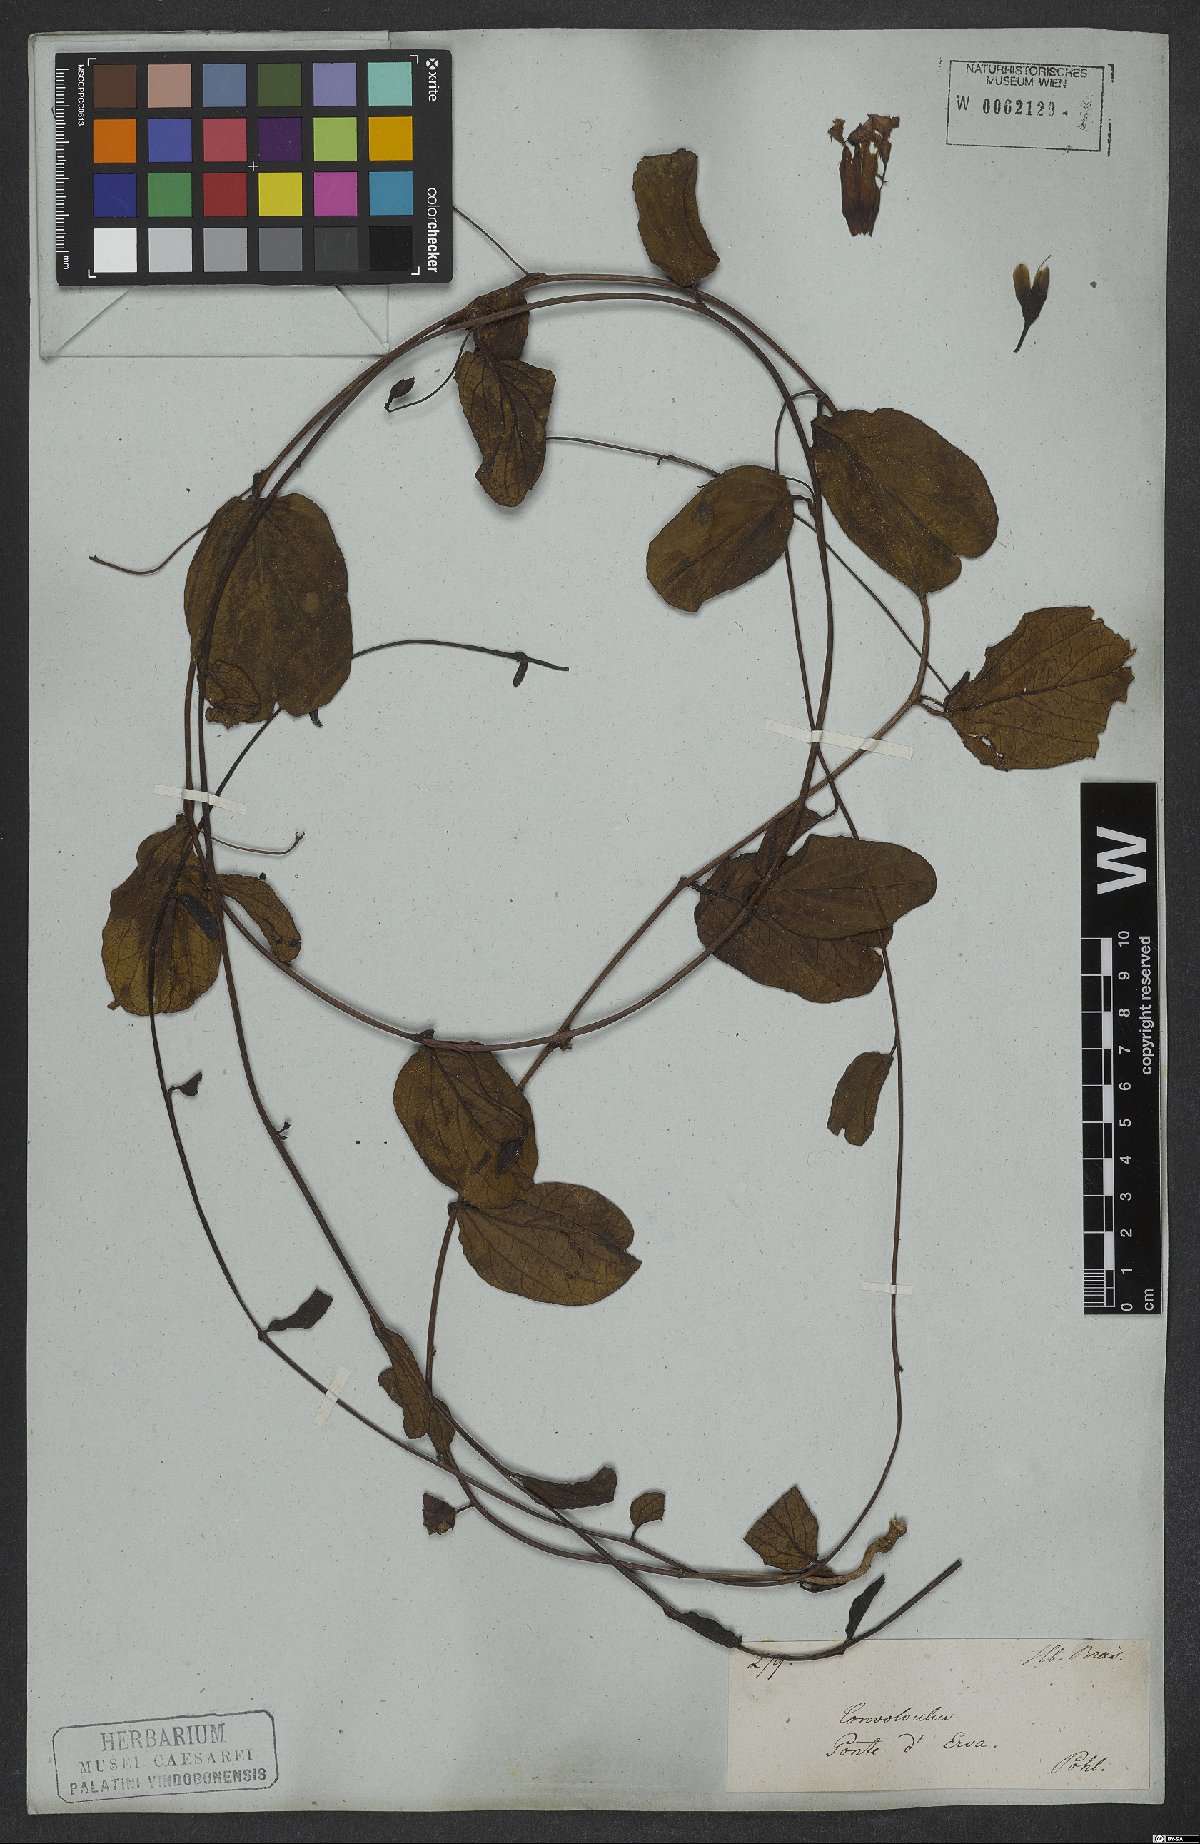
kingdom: Plantae
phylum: Tracheophyta
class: Magnoliopsida
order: Solanales
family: Convolvulaceae
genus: Ipomoea
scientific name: Ipomoea procurrens
